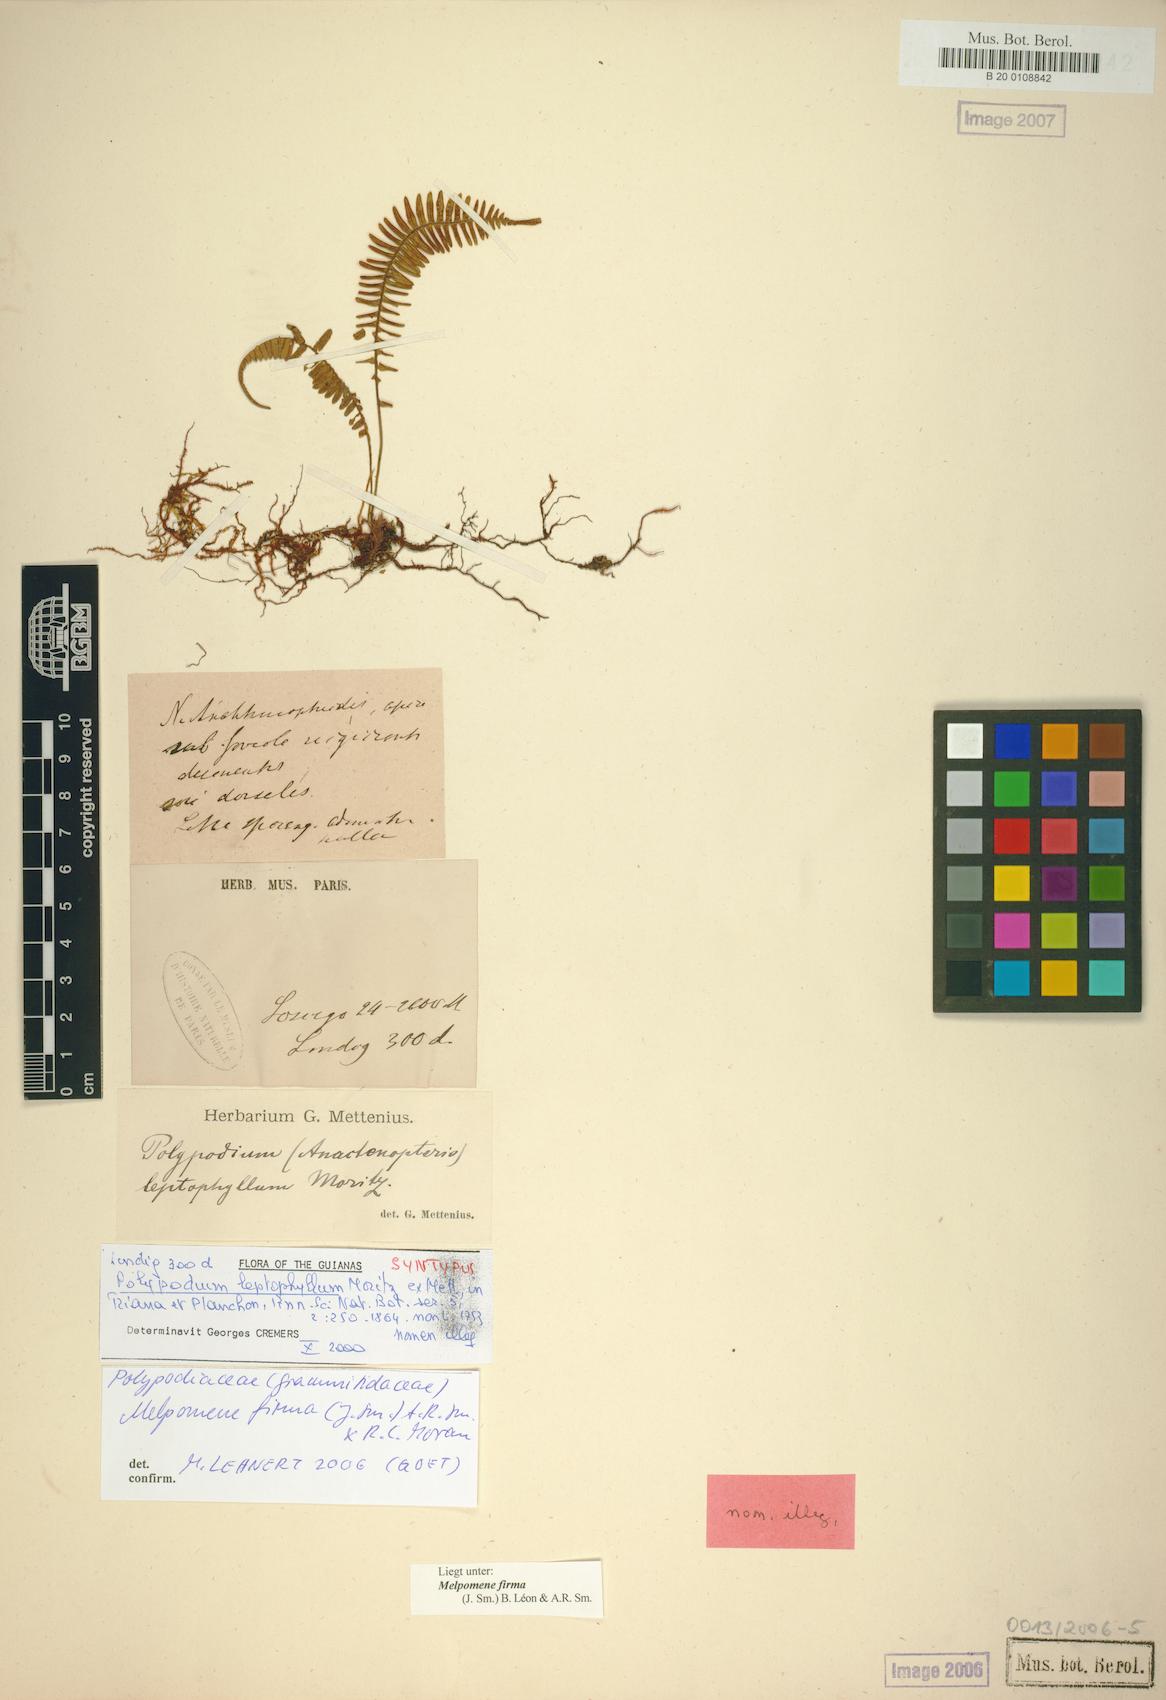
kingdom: Plantae
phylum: Tracheophyta
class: Polypodiopsida
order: Polypodiales
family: Polypodiaceae
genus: Melpomene
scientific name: Melpomene firma
